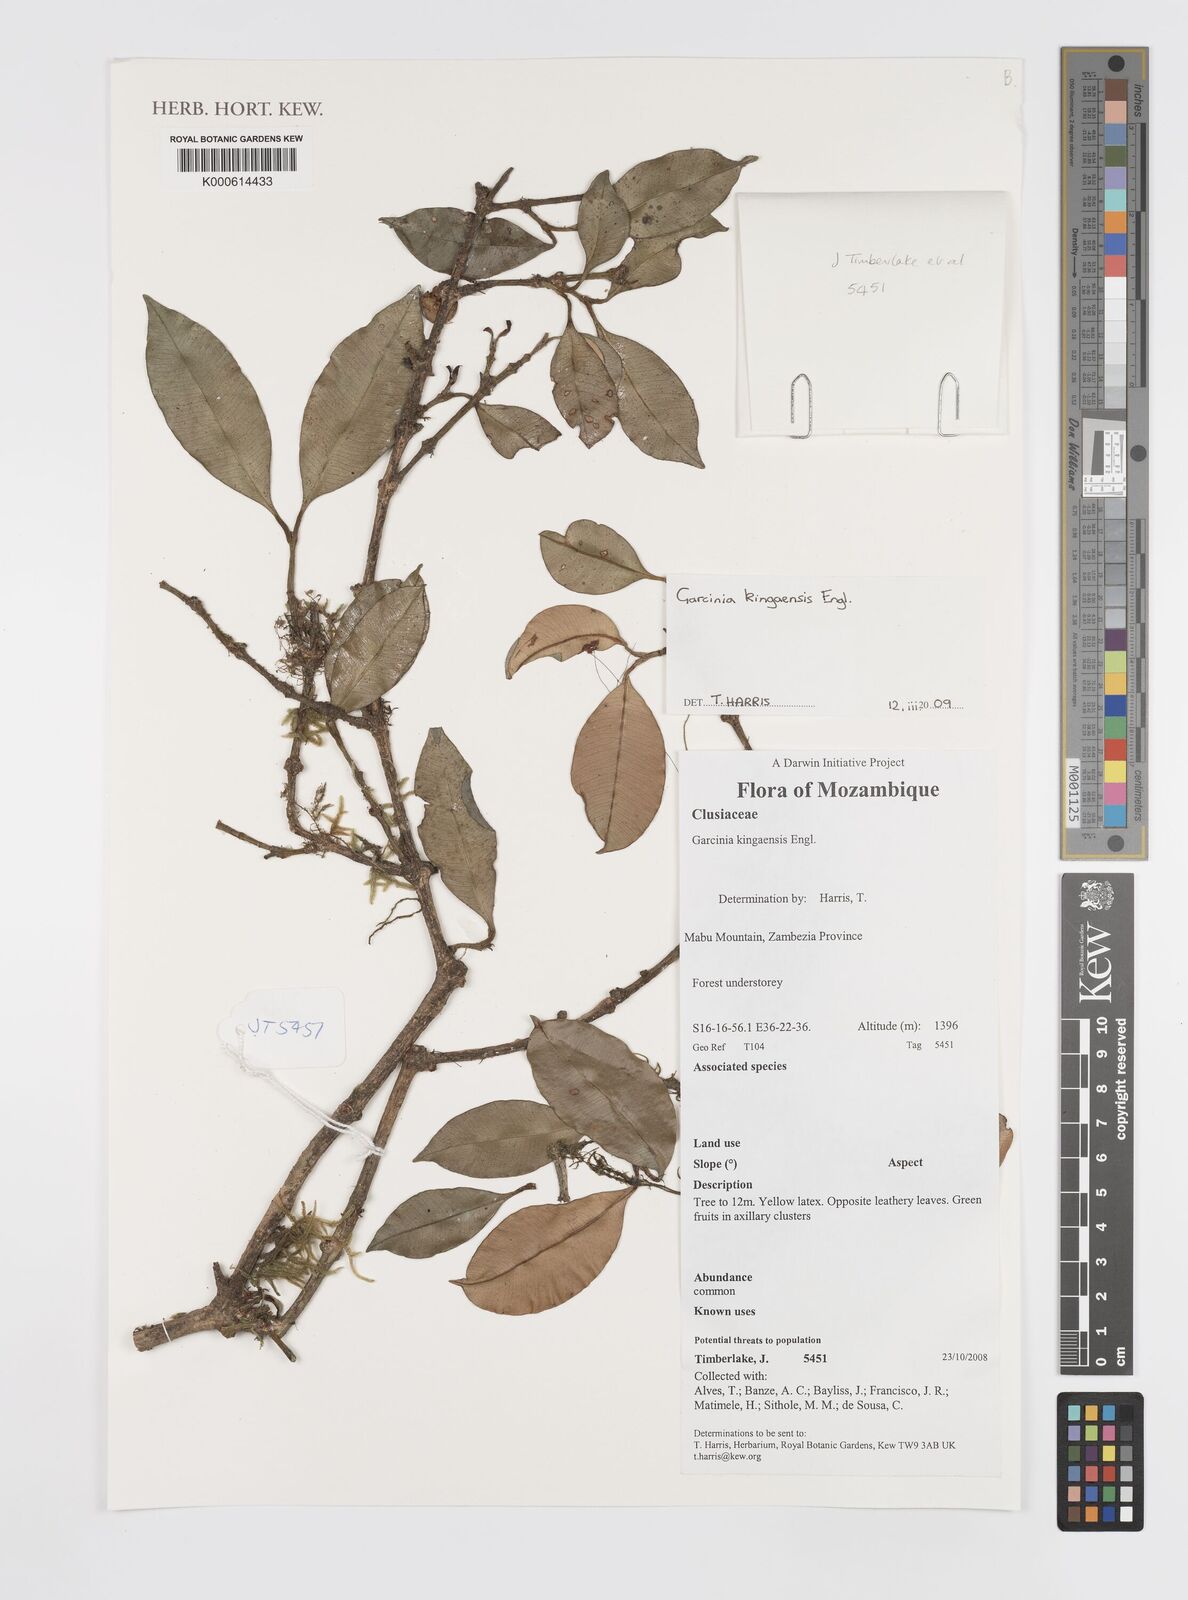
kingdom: Plantae
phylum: Tracheophyta
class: Magnoliopsida
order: Malpighiales
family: Clusiaceae
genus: Garcinia
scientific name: Garcinia kingaensis
